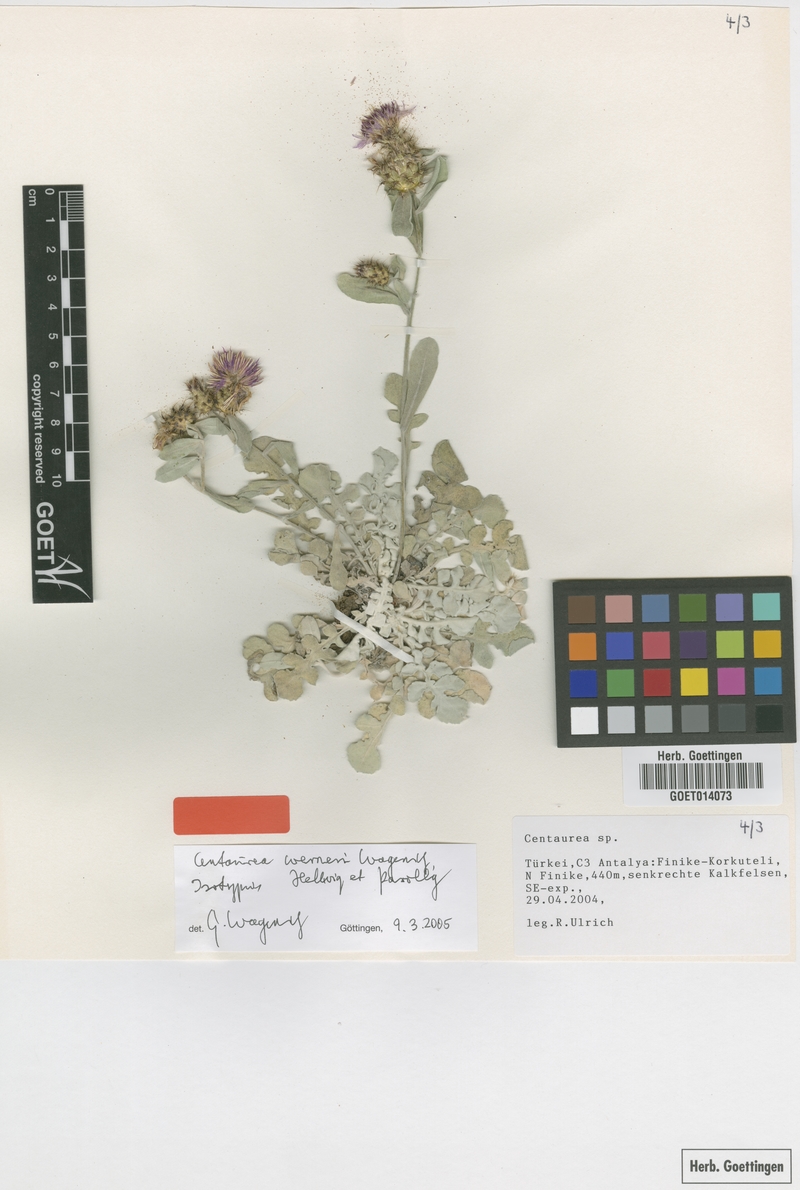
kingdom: Plantae
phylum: Tracheophyta
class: Magnoliopsida
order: Asterales
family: Asteraceae
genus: Centaurea
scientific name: Centaurea werneri
